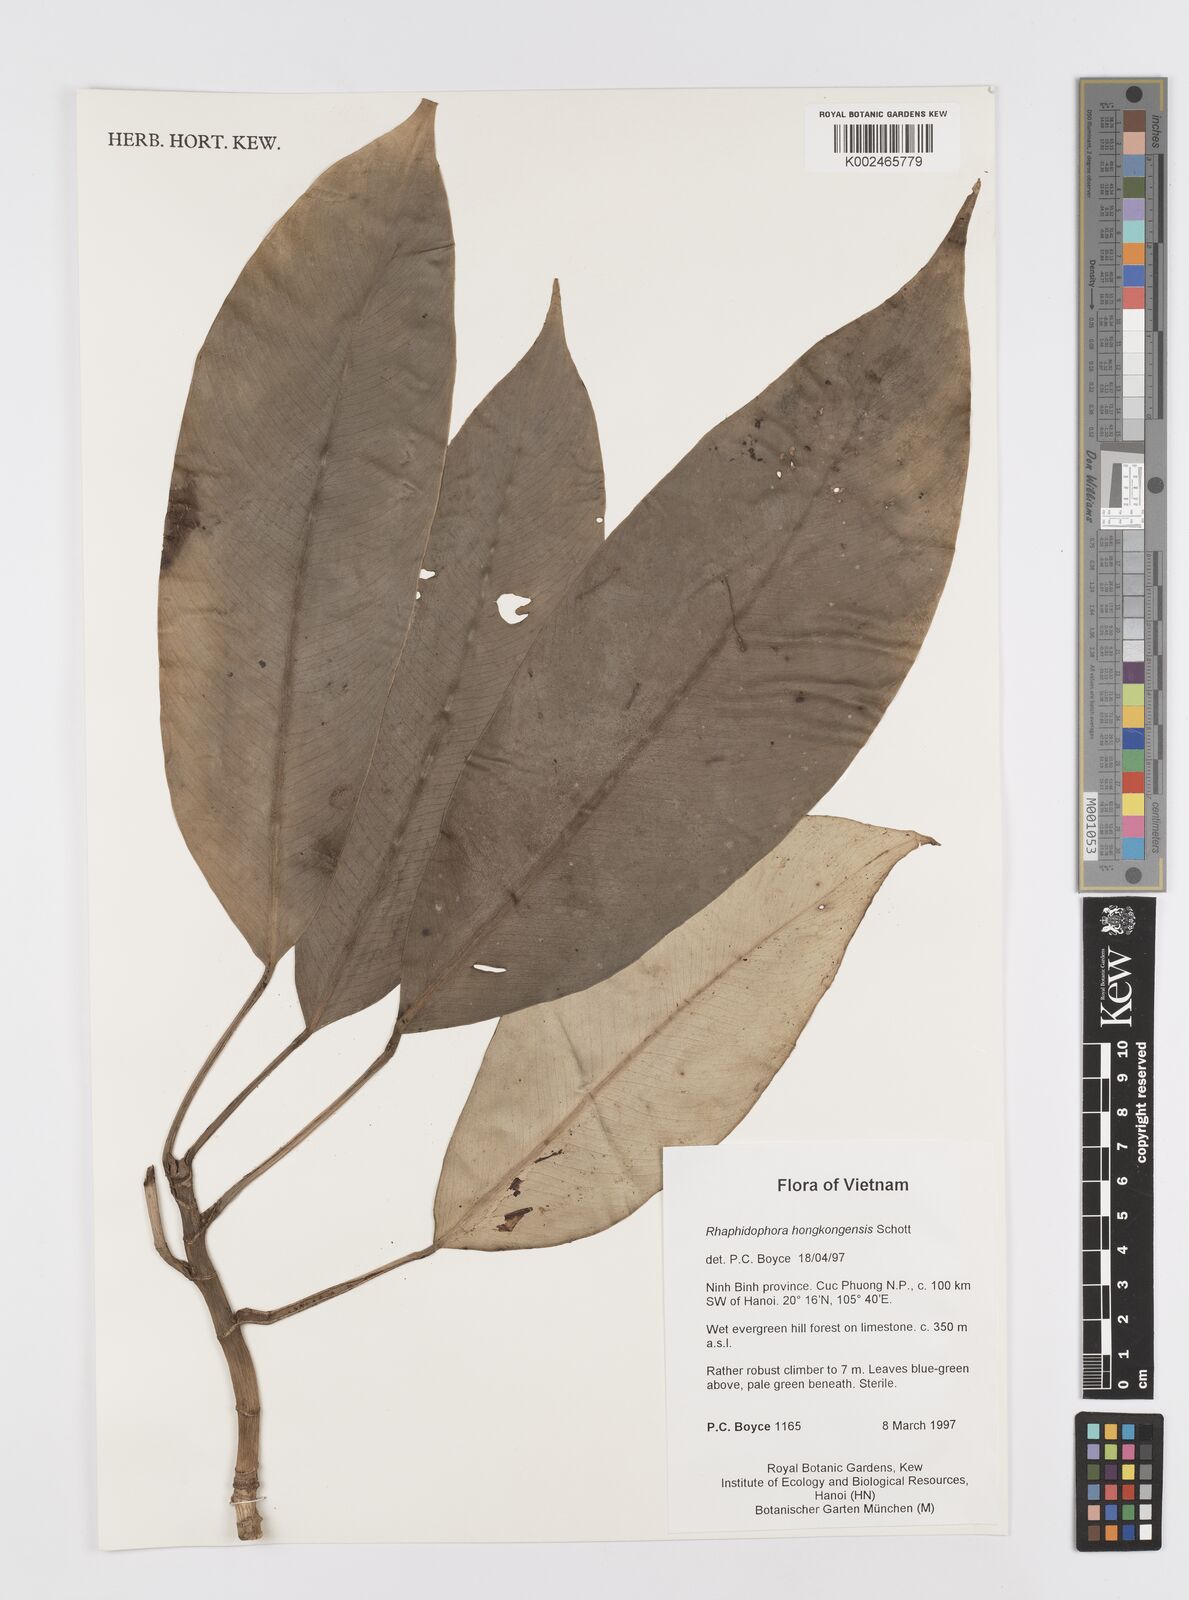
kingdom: Plantae
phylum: Tracheophyta
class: Liliopsida
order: Alismatales
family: Araceae
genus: Rhaphidophora
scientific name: Rhaphidophora
